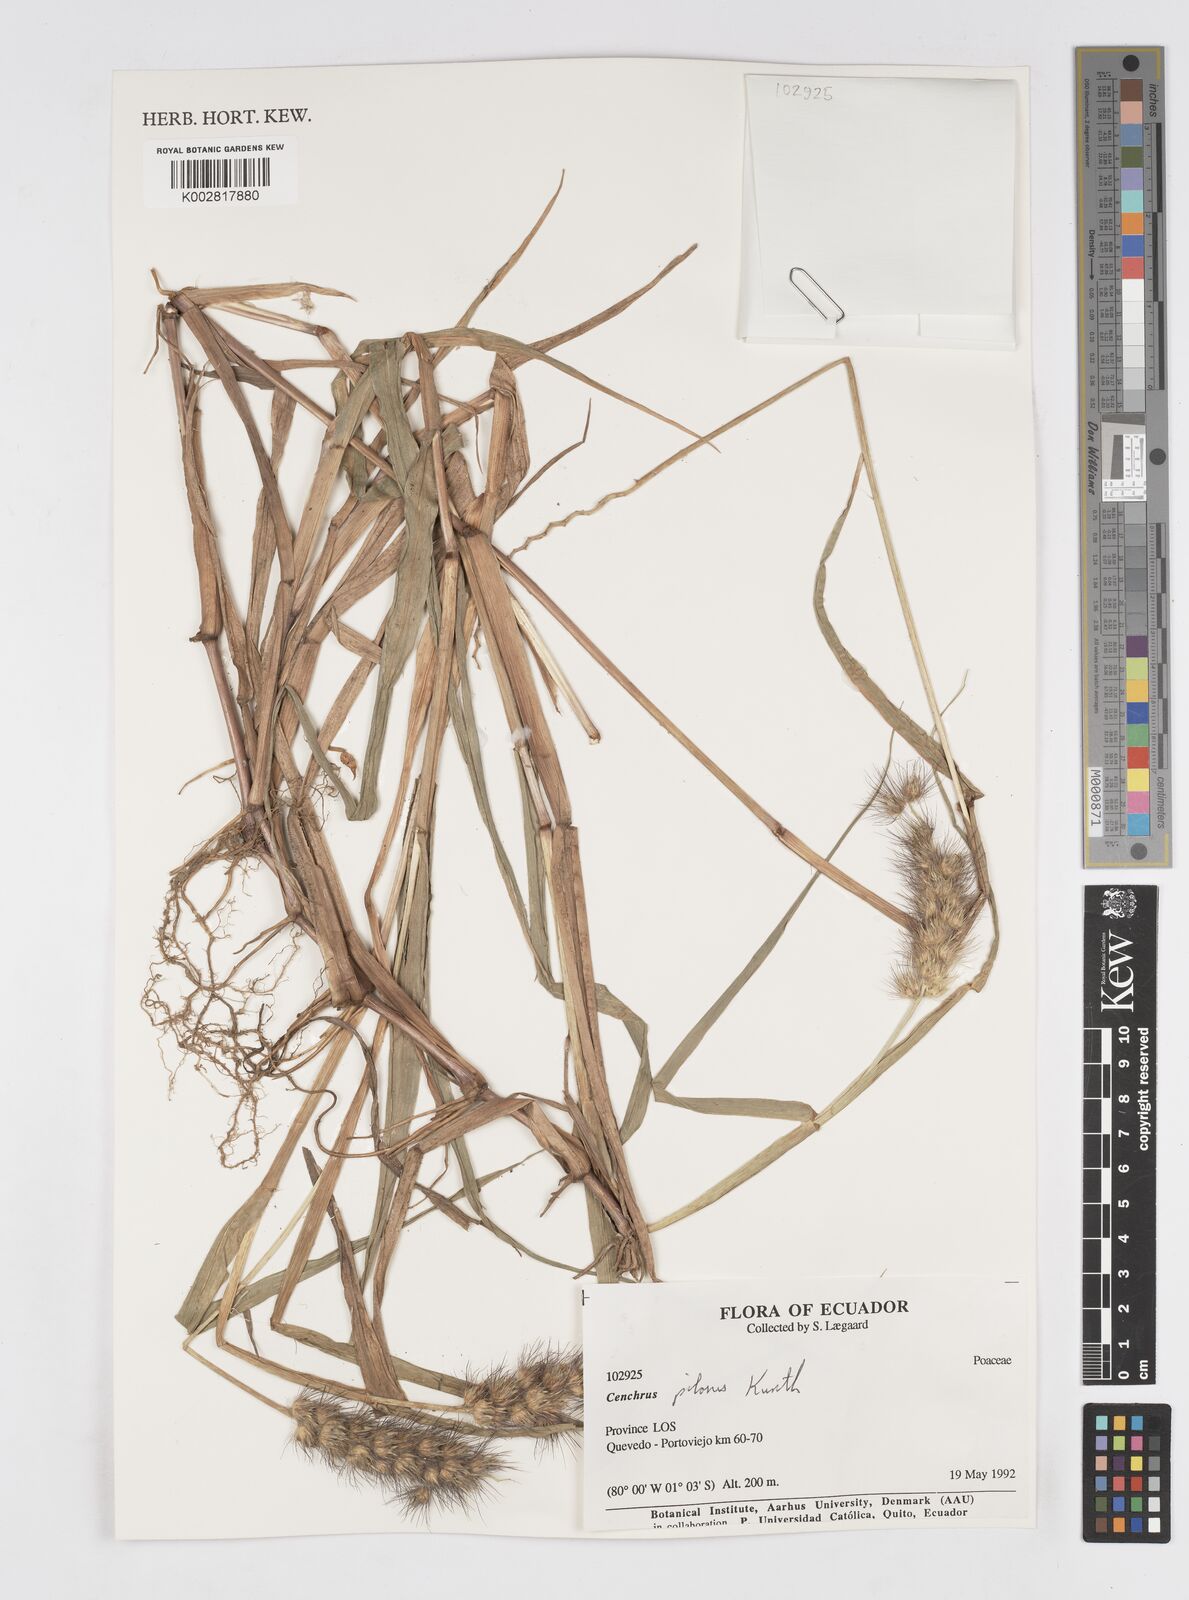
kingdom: Plantae
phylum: Tracheophyta
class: Liliopsida
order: Poales
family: Poaceae
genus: Cenchrus
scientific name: Cenchrus pilosus
